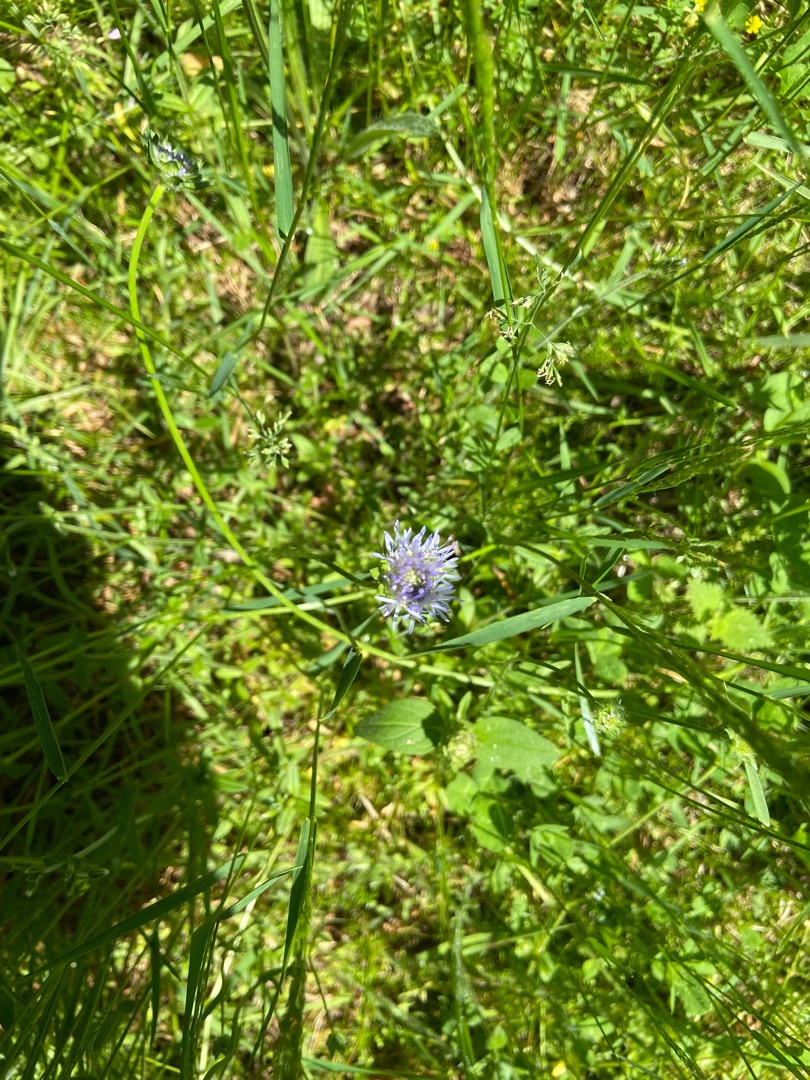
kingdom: Plantae
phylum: Tracheophyta
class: Magnoliopsida
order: Asterales
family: Campanulaceae
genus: Jasione
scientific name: Jasione montana
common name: Blåmunke
